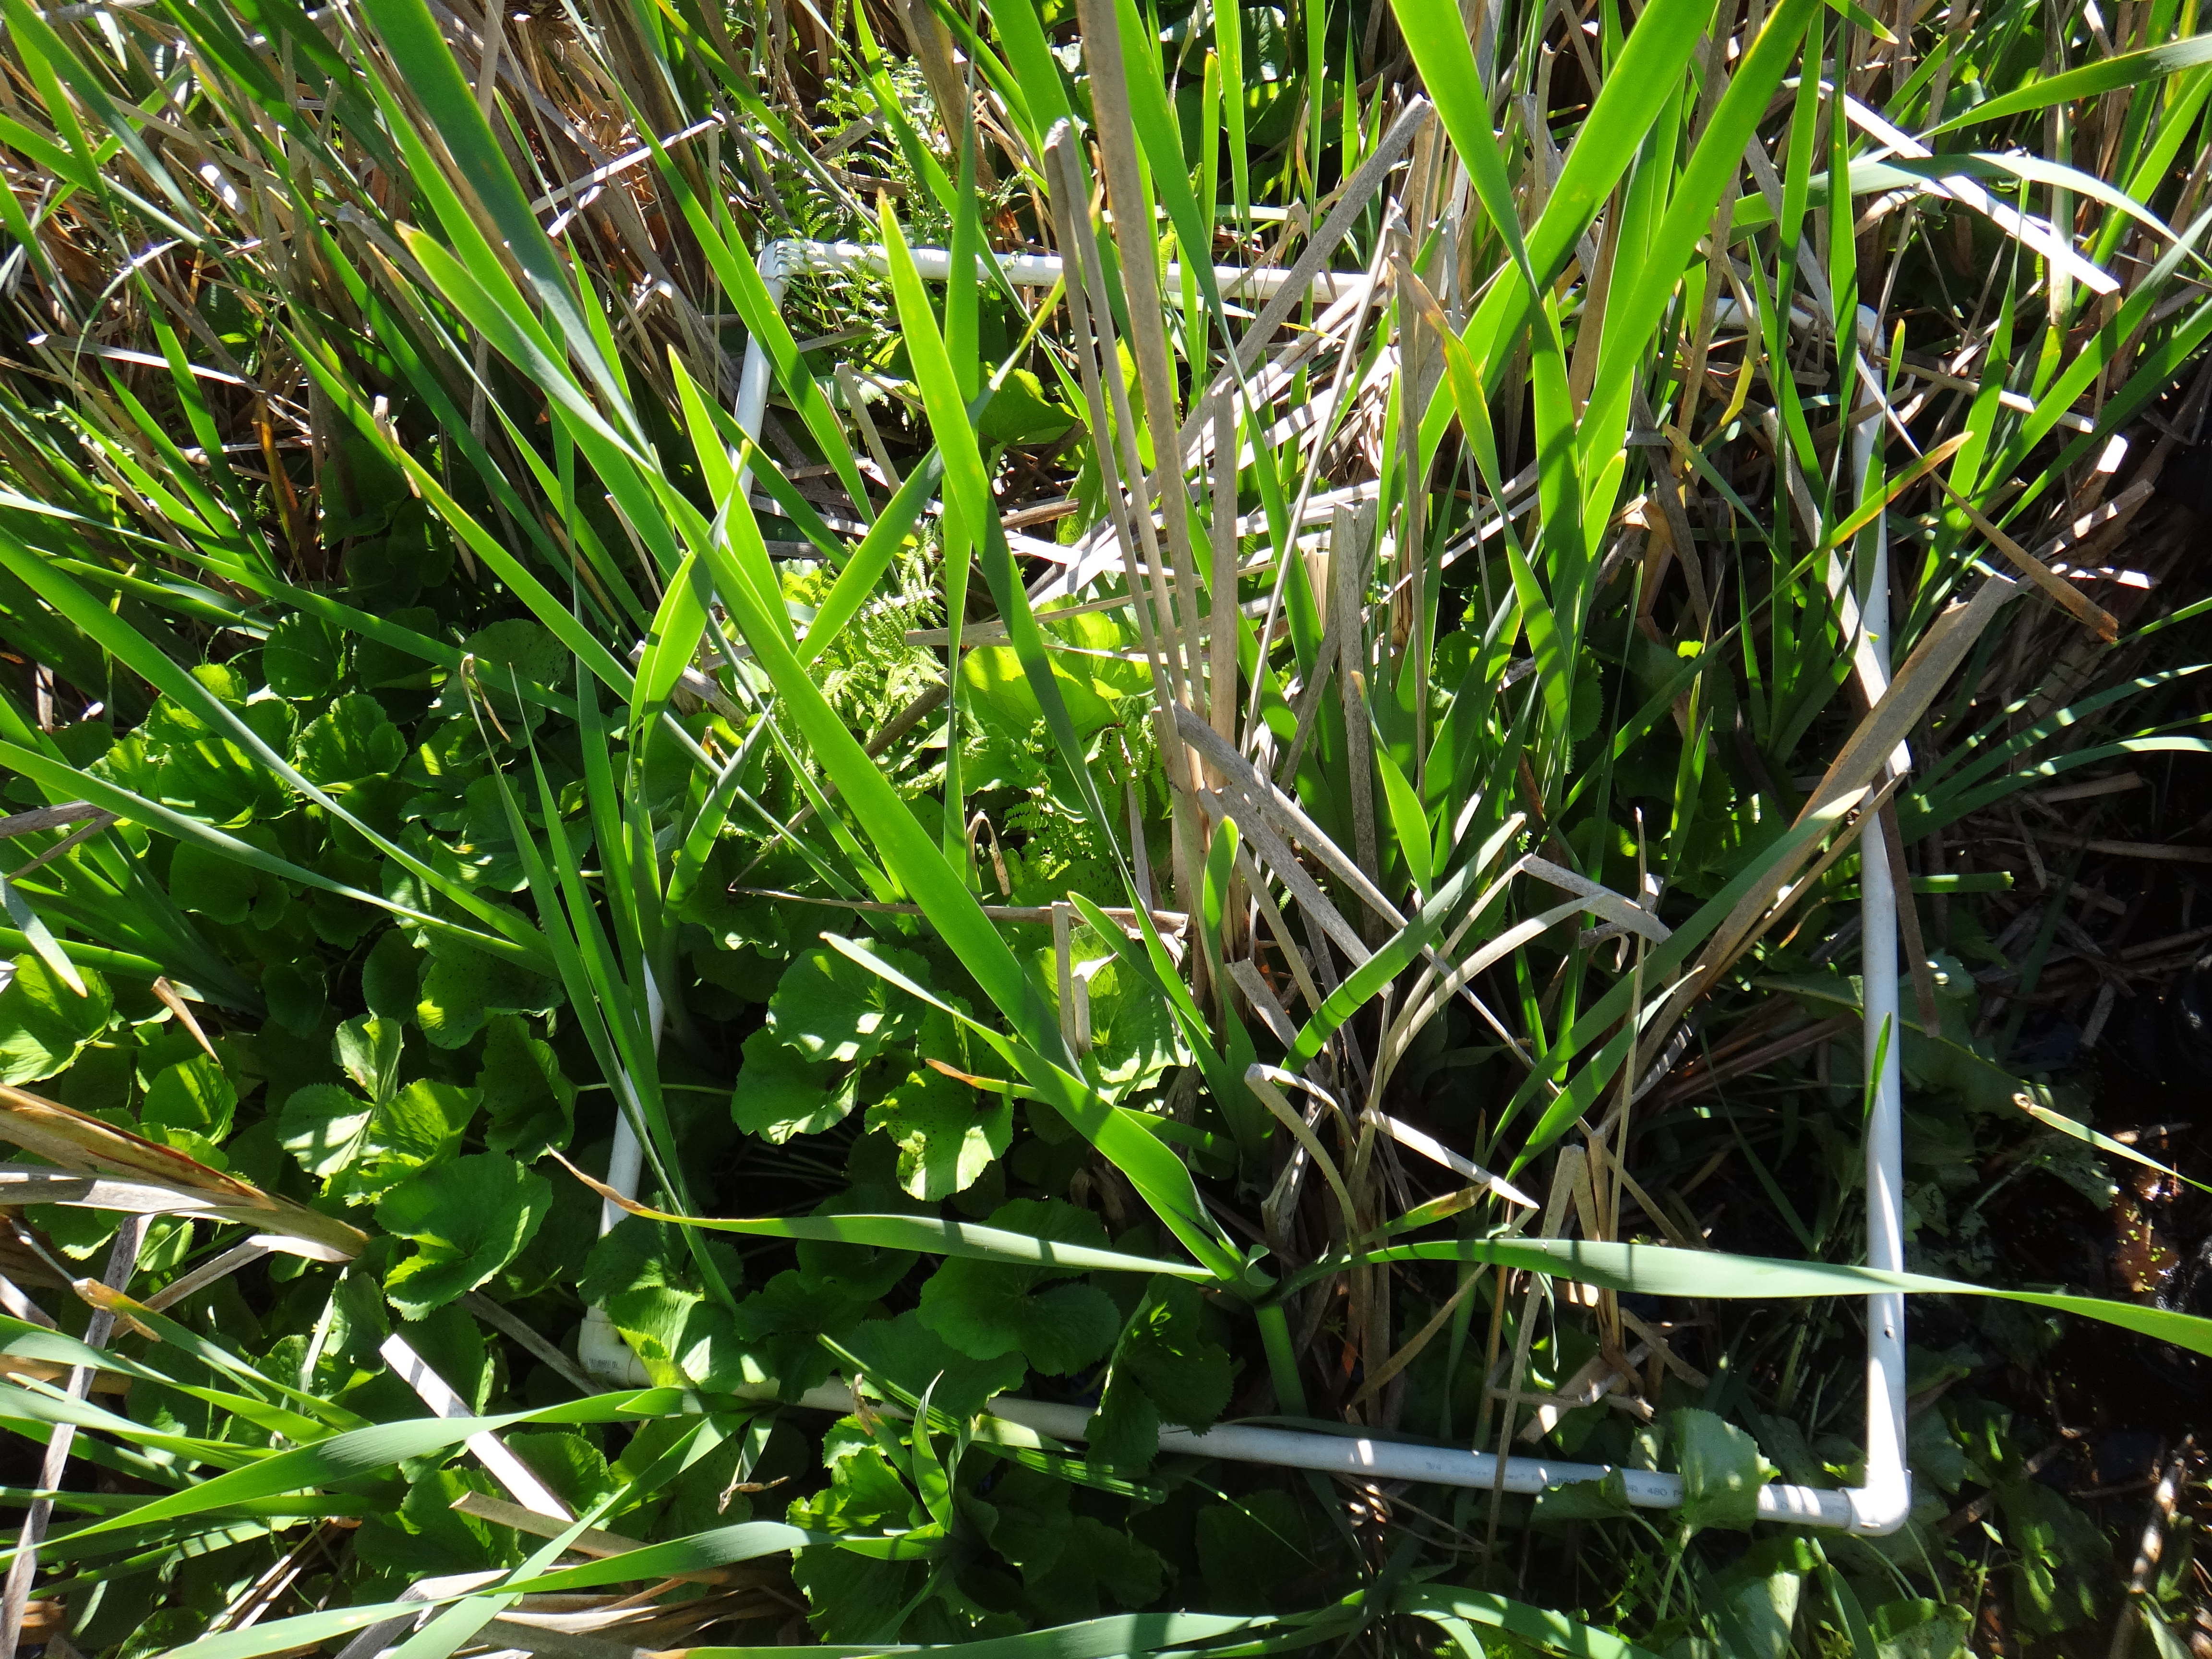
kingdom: Plantae
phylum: Tracheophyta
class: Magnoliopsida
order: Caryophyllales
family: Polygonaceae
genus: Rumex
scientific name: Rumex orbiculatus
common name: Greater water dock
